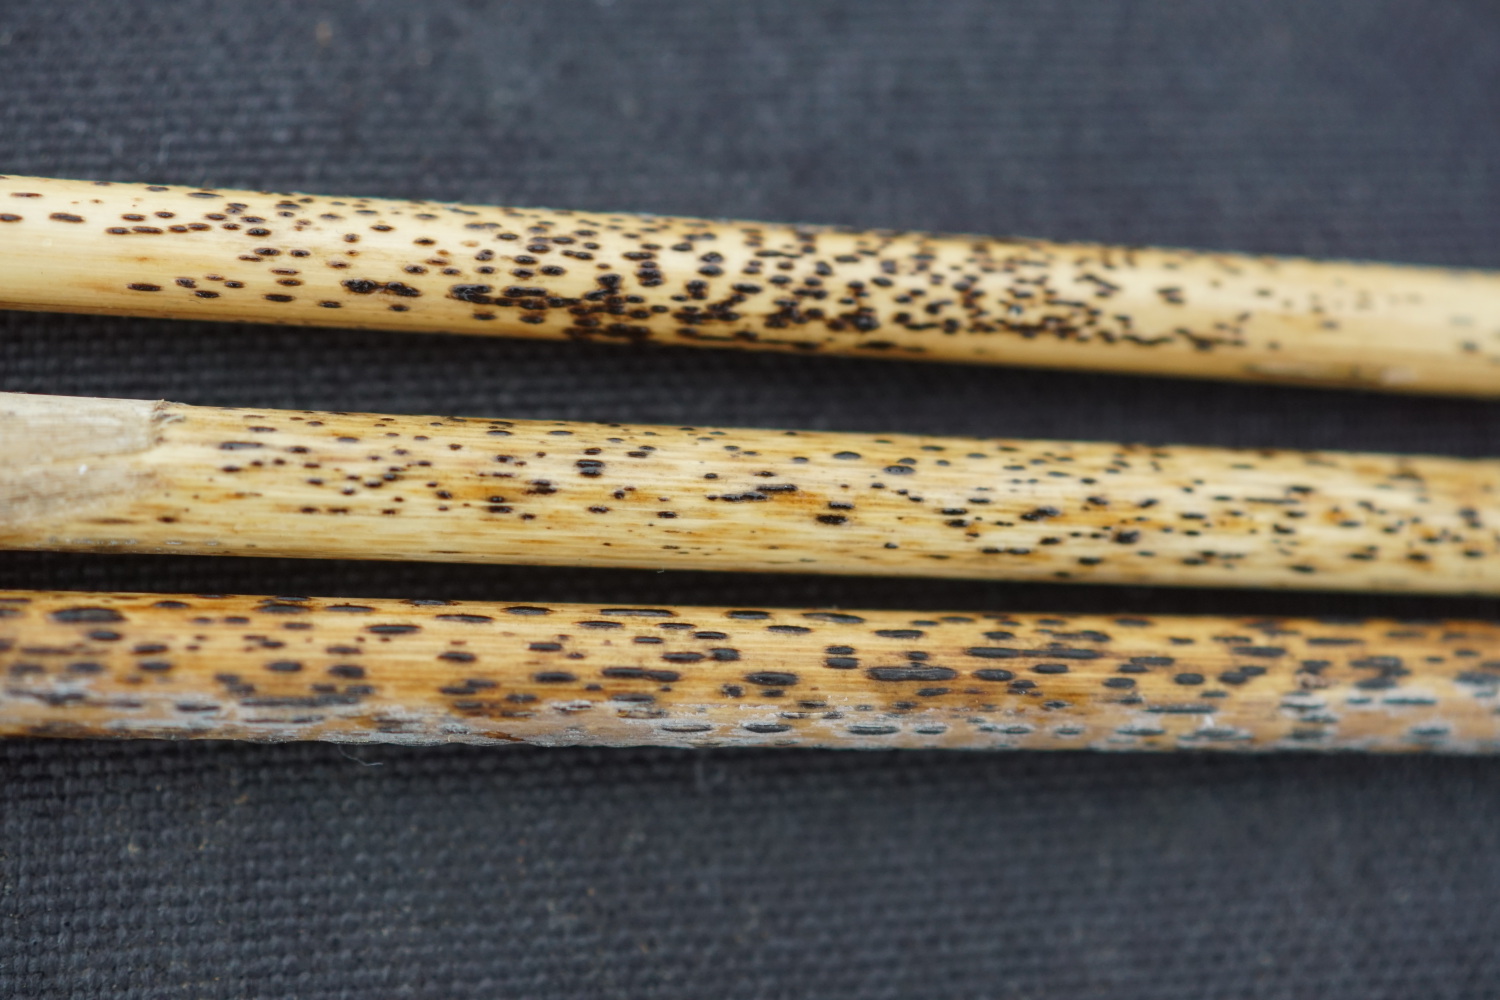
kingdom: Fungi
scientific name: Fungi
